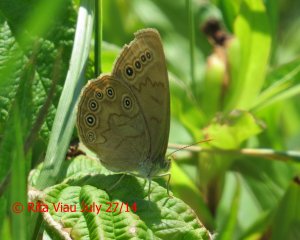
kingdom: Animalia
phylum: Arthropoda
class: Insecta
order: Lepidoptera
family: Nymphalidae
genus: Lethe
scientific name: Lethe eurydice
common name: Eyed Brown
